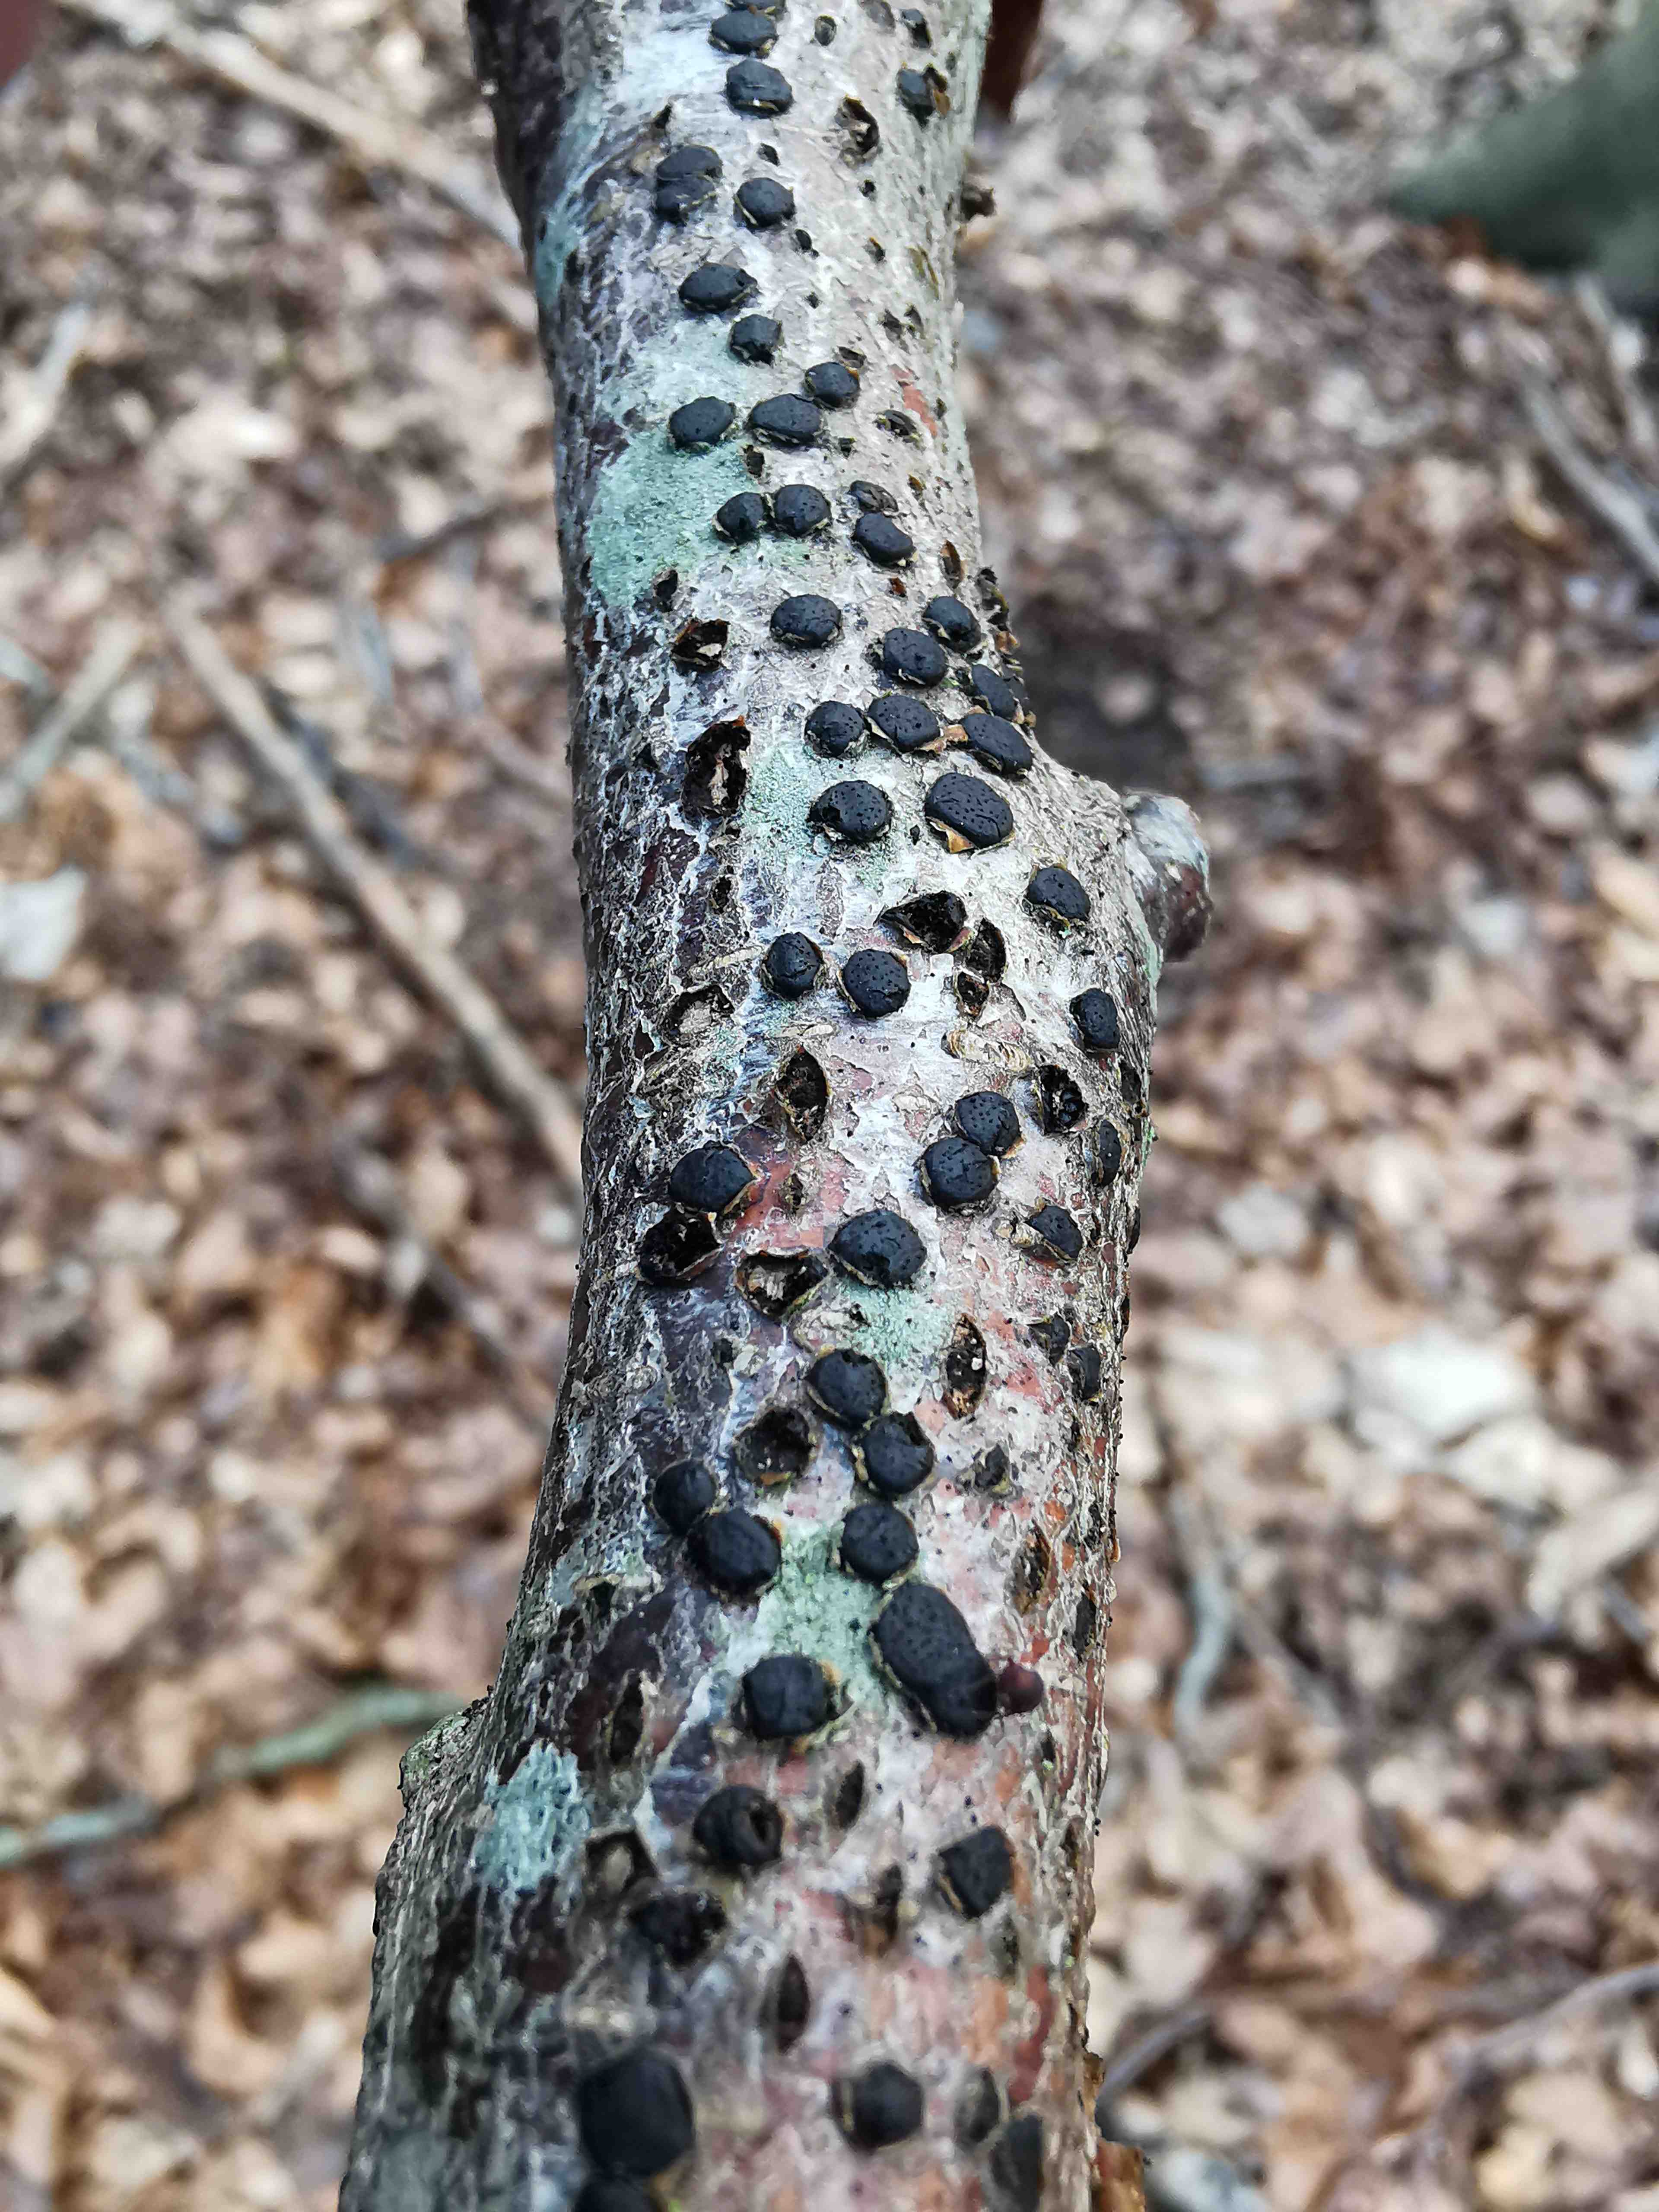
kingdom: Fungi
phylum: Ascomycota
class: Sordariomycetes
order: Xylariales
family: Diatrypaceae
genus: Diatrype
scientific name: Diatrype disciformis
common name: kant-kulskorpe
